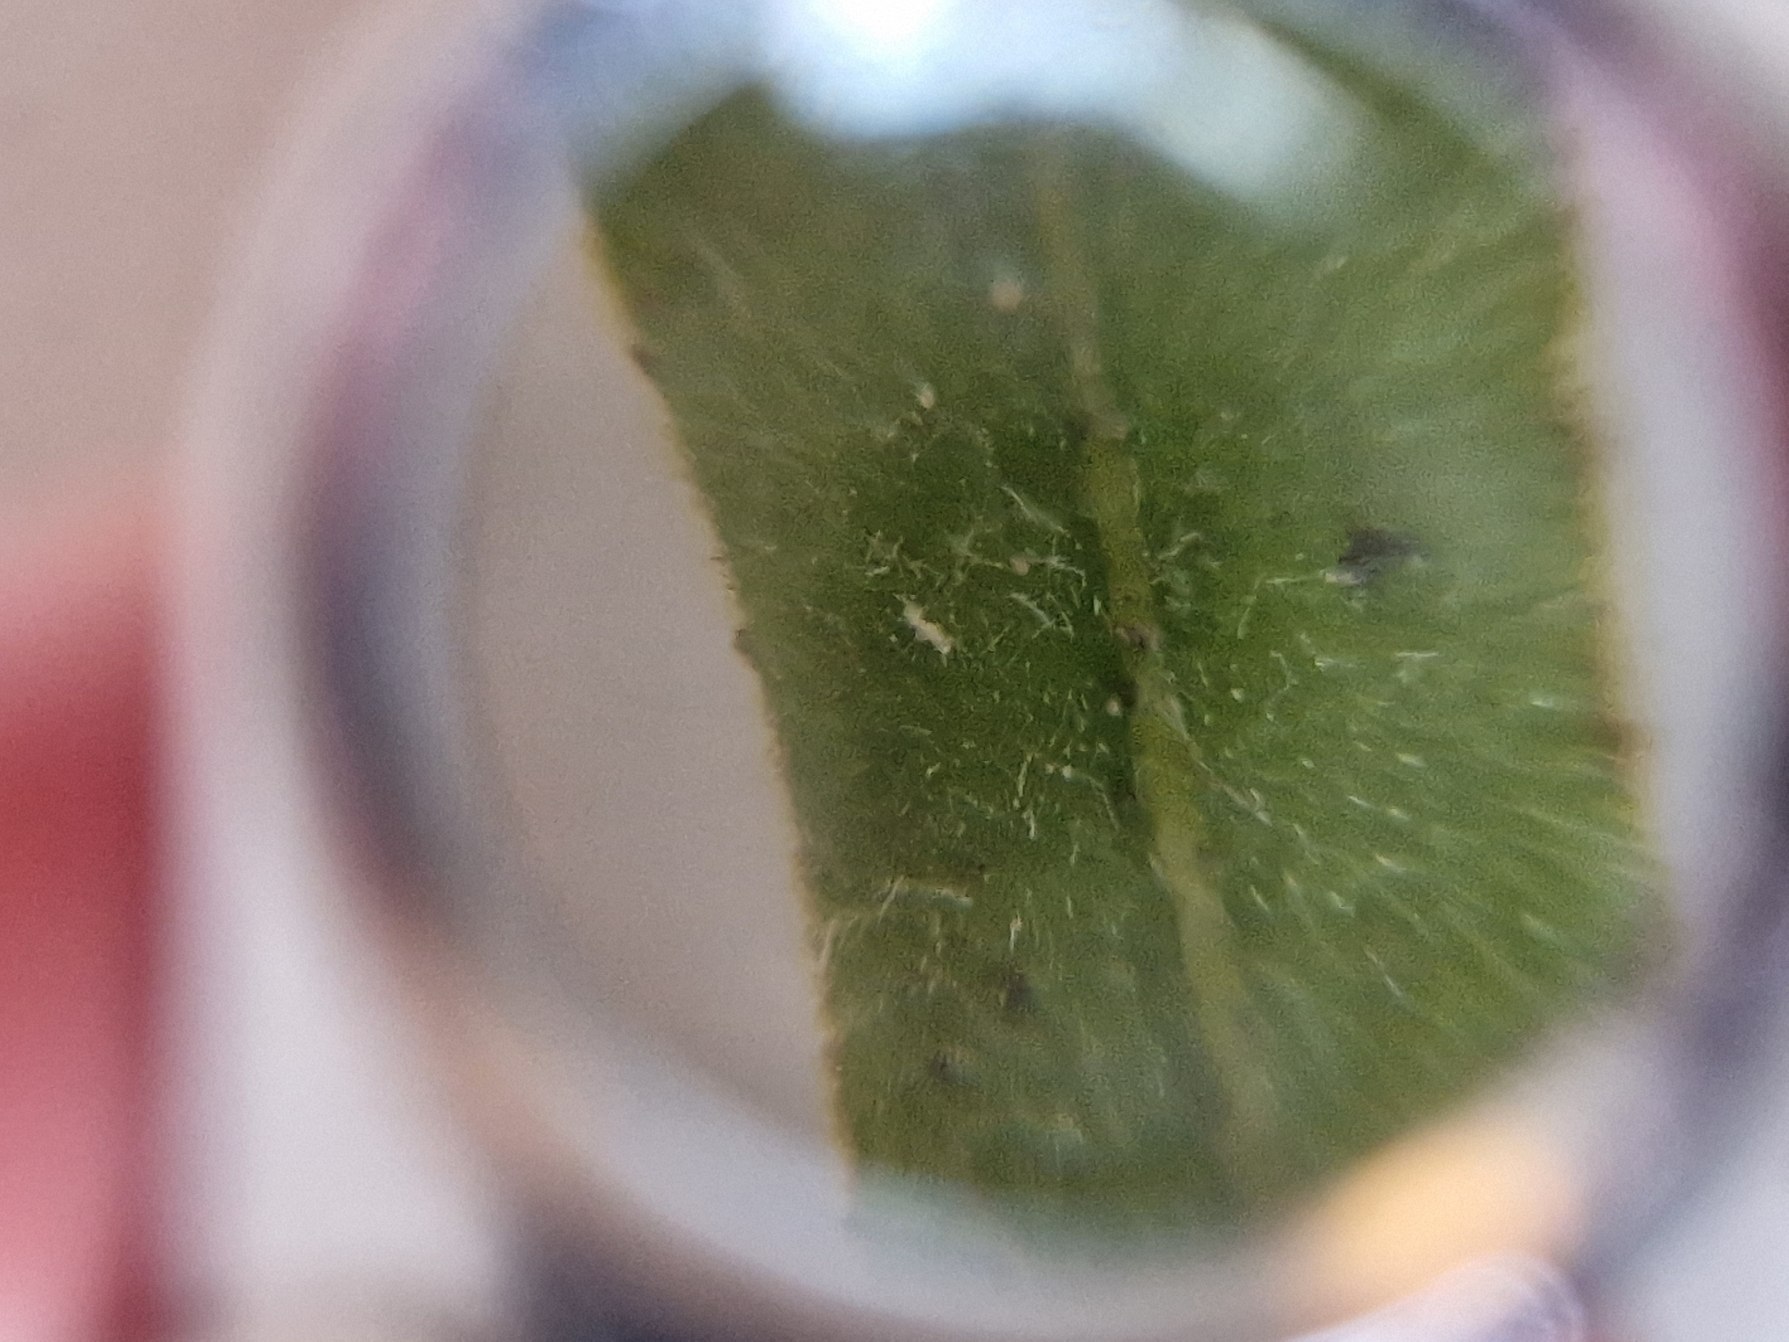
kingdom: Plantae
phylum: Tracheophyta
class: Magnoliopsida
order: Asterales
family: Asteraceae
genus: Pentanema
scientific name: Pentanema britannicum
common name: Soløje-alant
